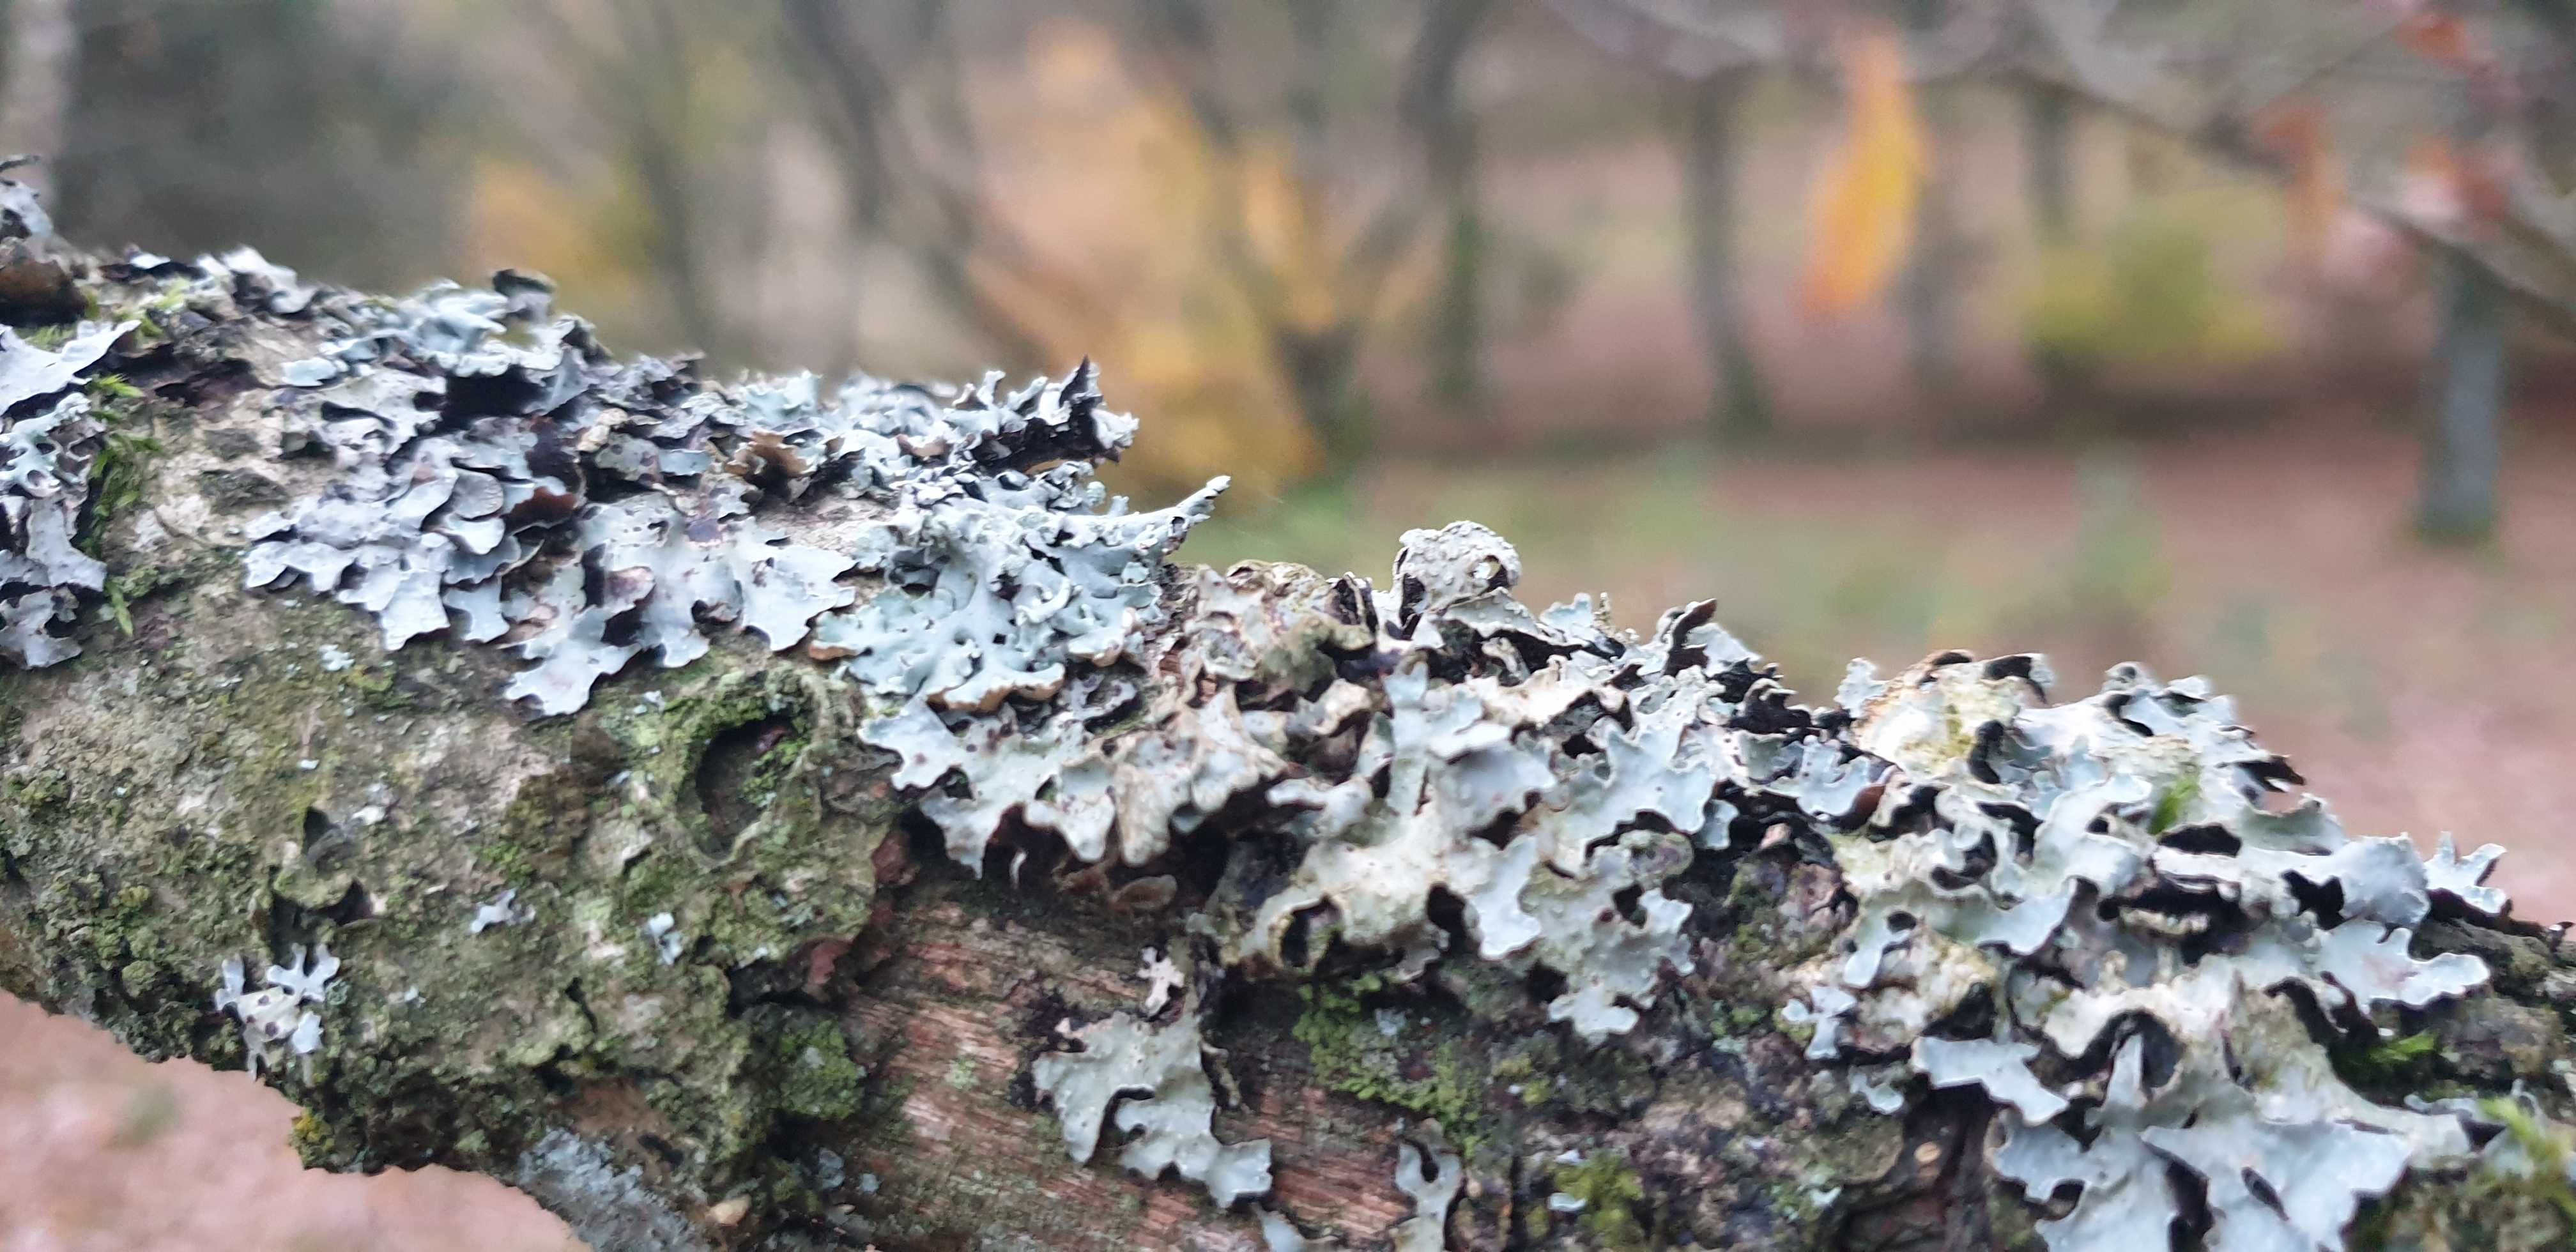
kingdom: Fungi
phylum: Ascomycota
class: Lecanoromycetes
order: Lecanorales
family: Parmeliaceae
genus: Parmelia
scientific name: Parmelia sulcata
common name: rynket skållav
